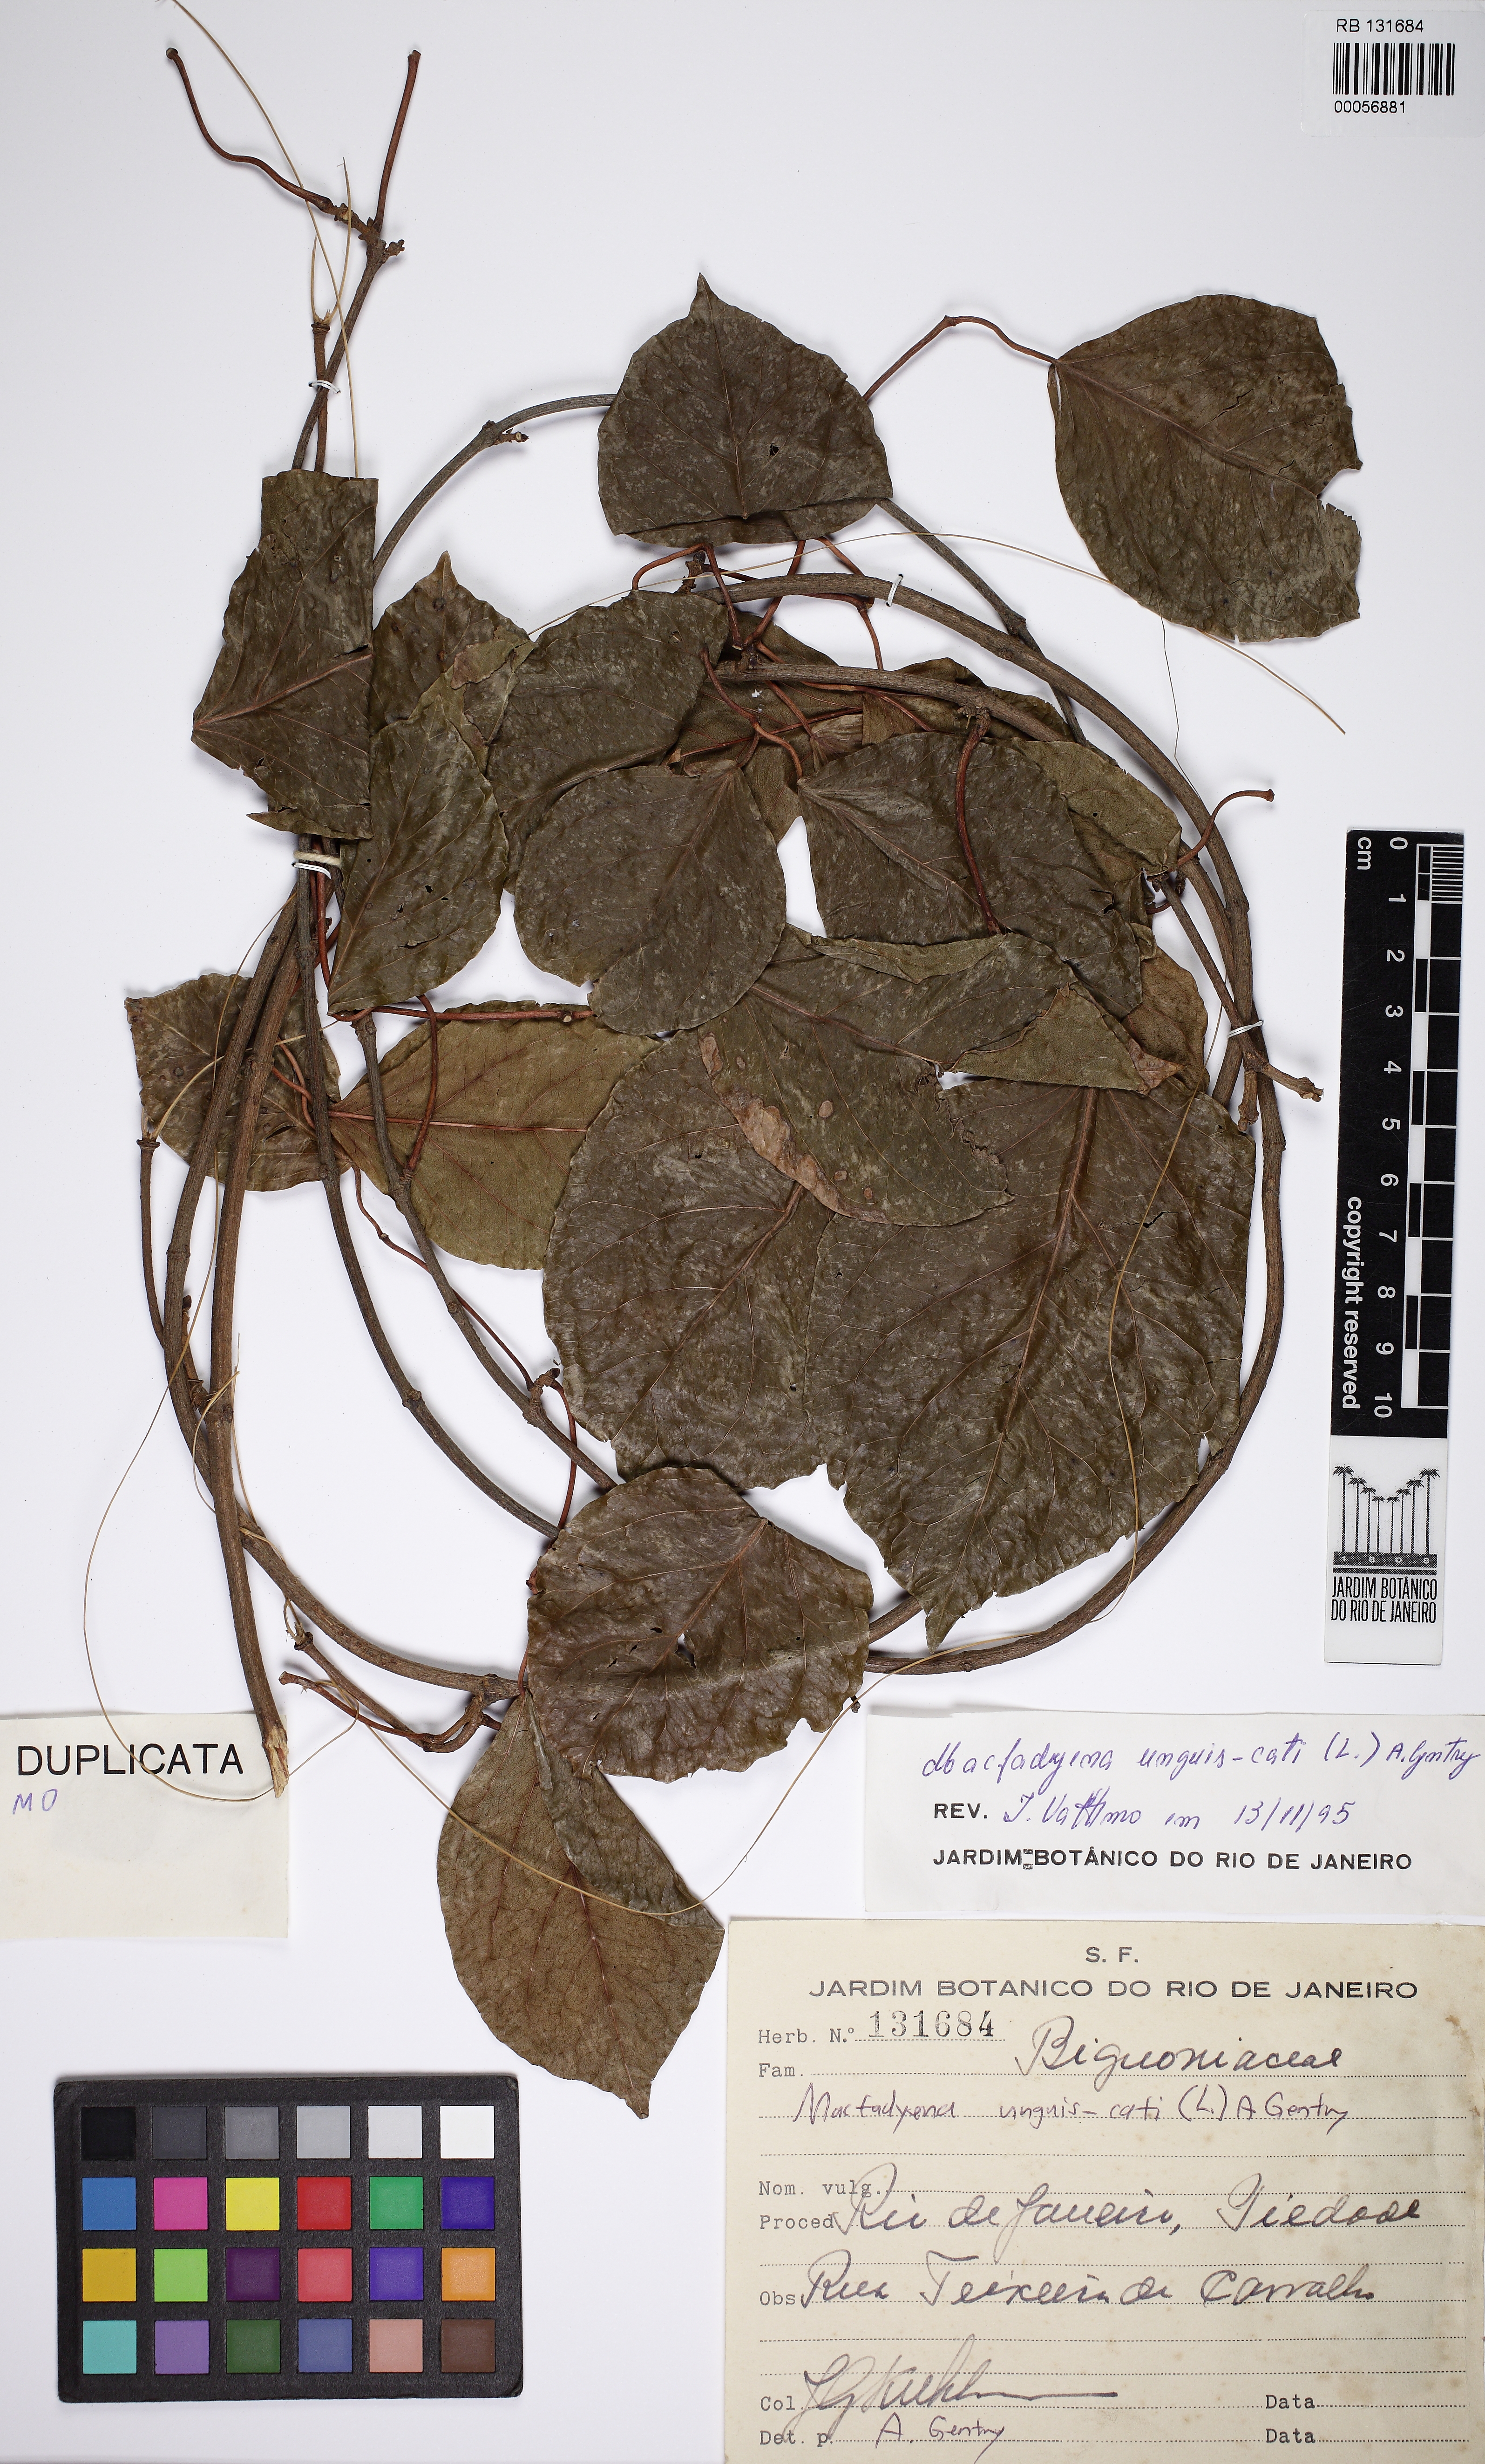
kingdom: Plantae
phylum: Tracheophyta
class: Magnoliopsida
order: Lamiales
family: Bignoniaceae
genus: Dolichandra
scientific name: Dolichandra unguis-cati
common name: Catclaw vine
